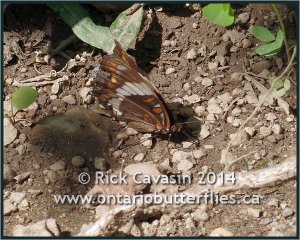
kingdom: Animalia
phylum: Arthropoda
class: Insecta
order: Lepidoptera
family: Nymphalidae
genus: Limenitis
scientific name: Limenitis arthemis
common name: Red-spotted Admiral
